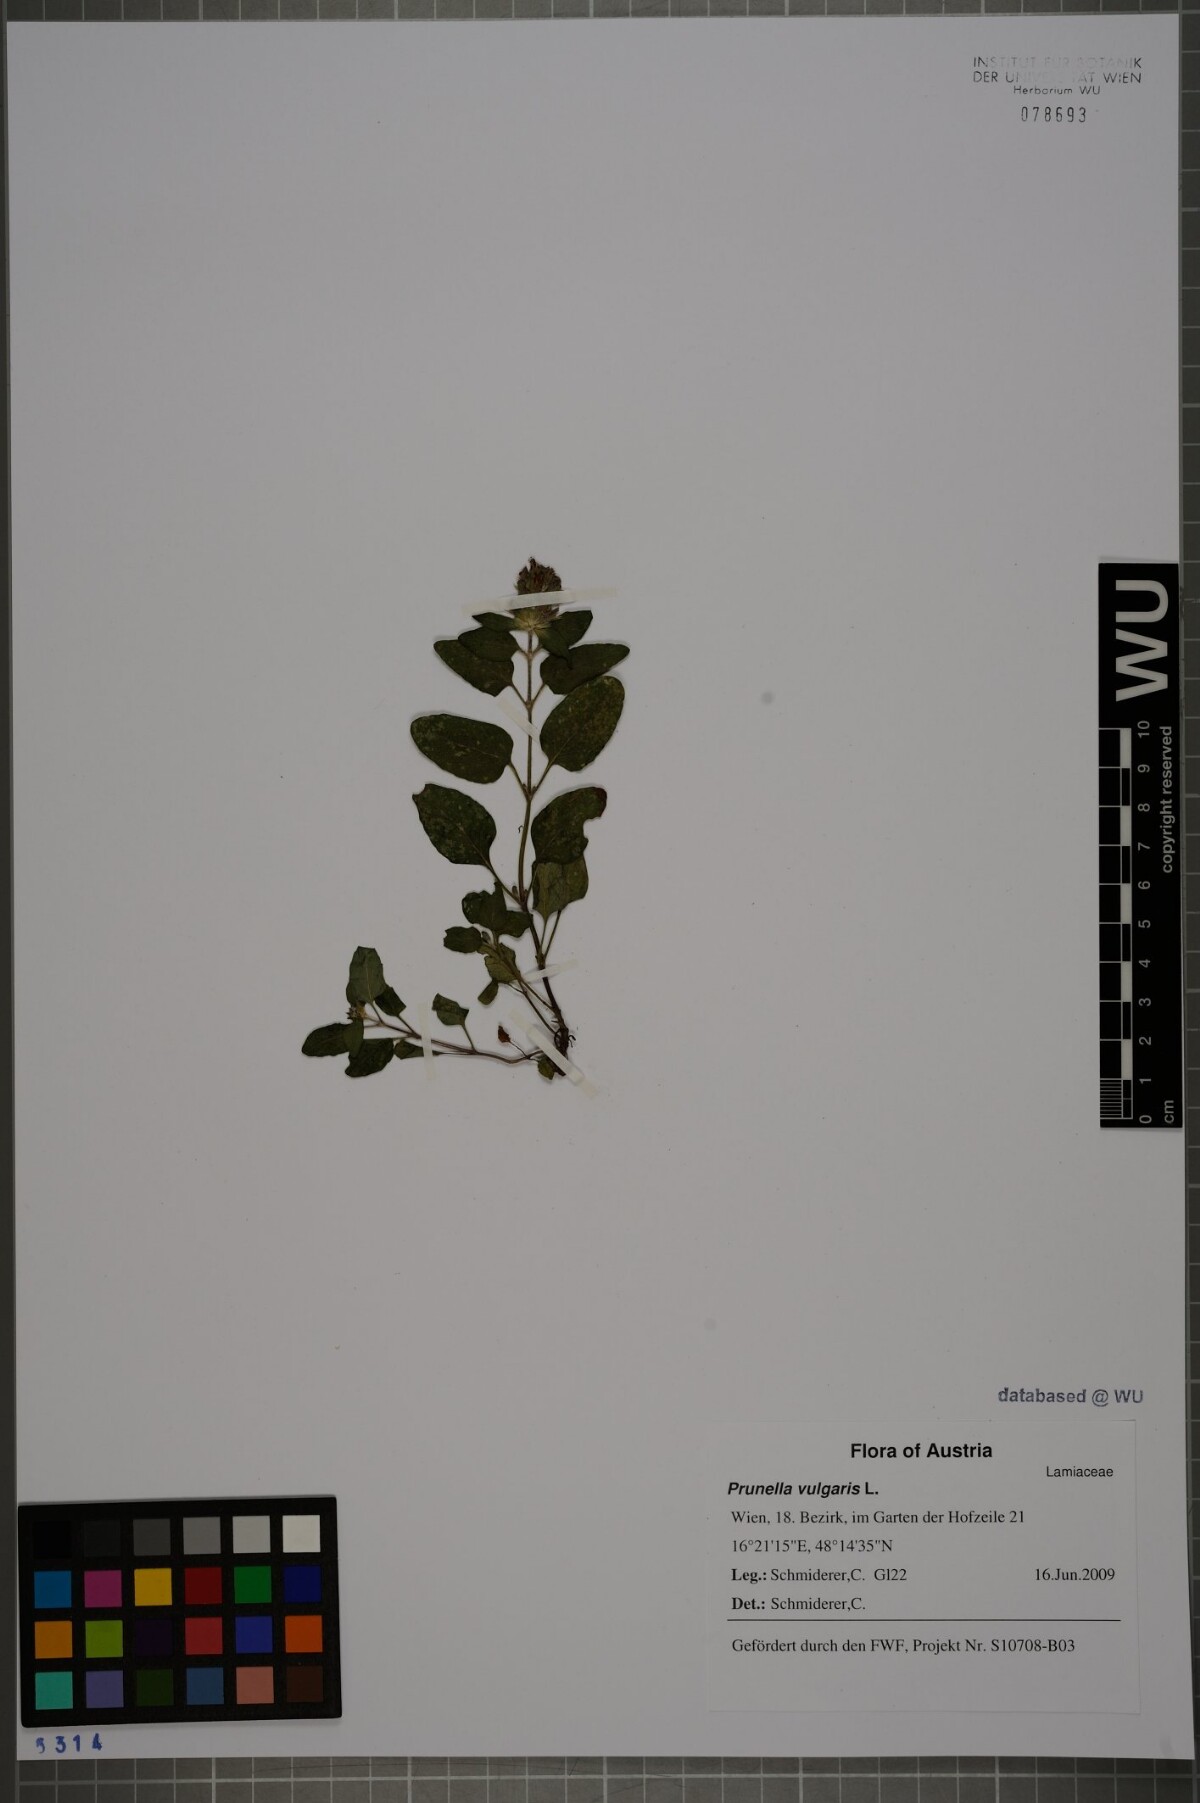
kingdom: Plantae
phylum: Tracheophyta
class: Magnoliopsida
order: Lamiales
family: Lamiaceae
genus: Prunella
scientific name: Prunella vulgaris
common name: Heal-all
